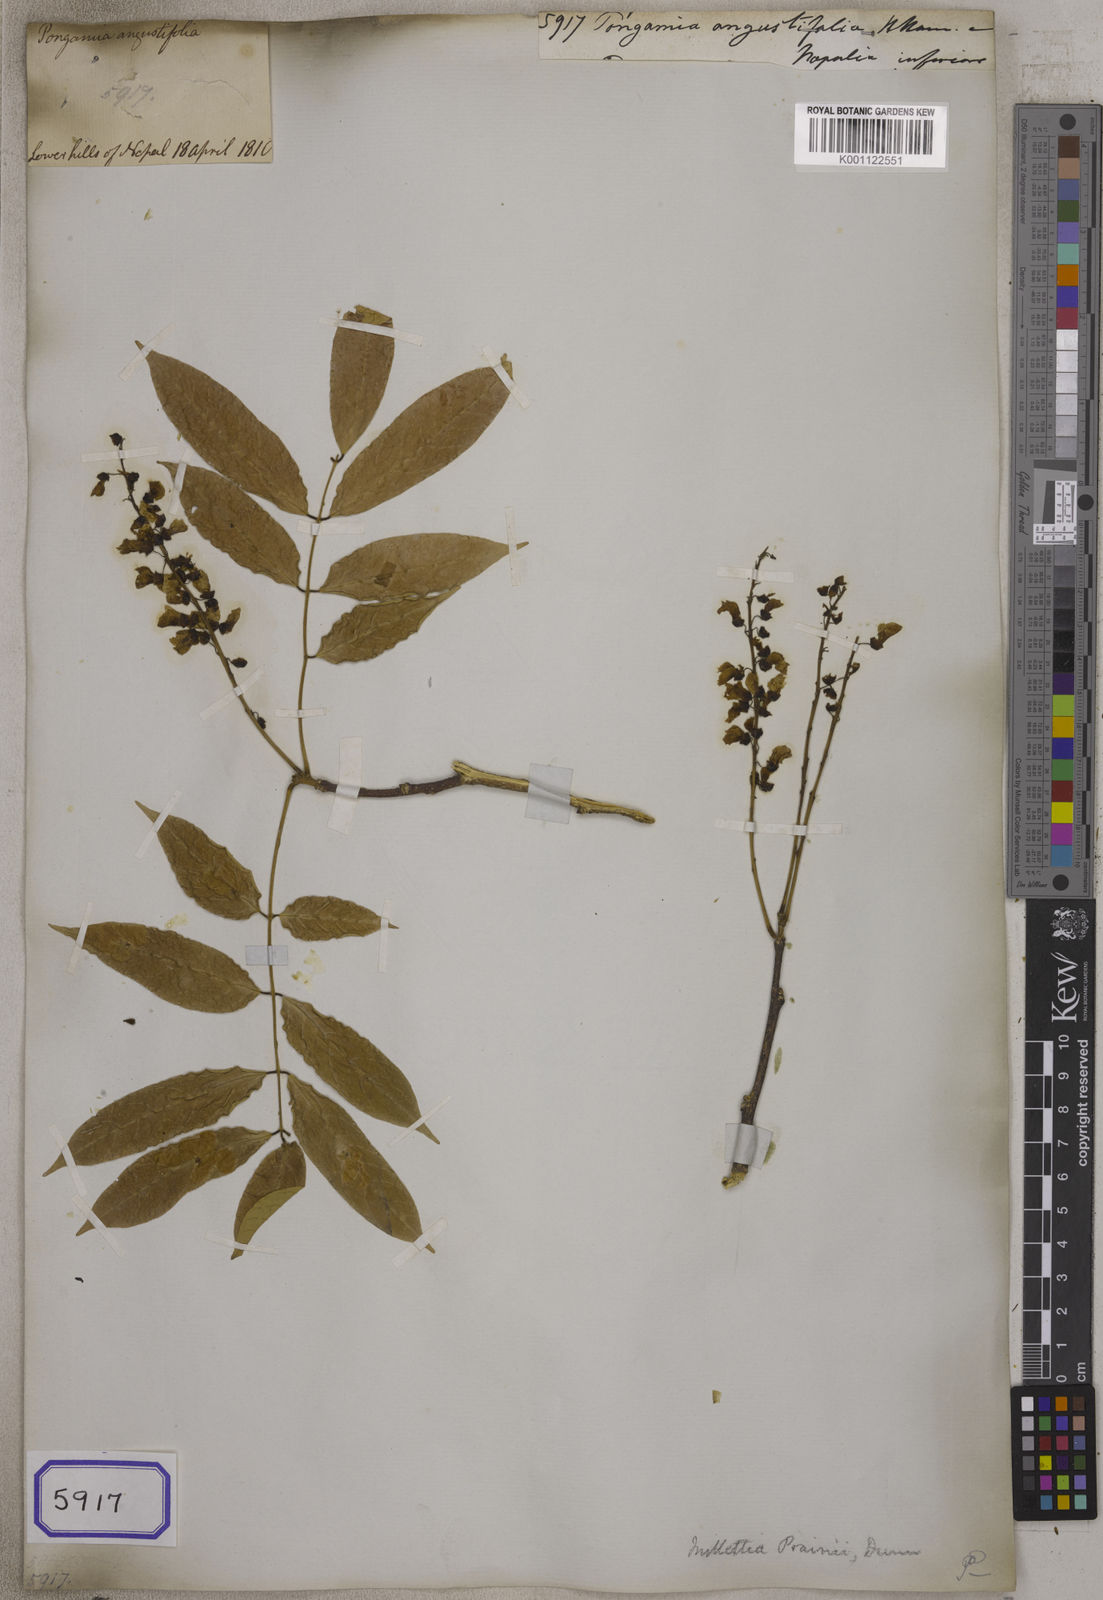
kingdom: Plantae
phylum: Tracheophyta
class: Magnoliopsida
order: Fabales
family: Fabaceae
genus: Pongamia
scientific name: Pongamia
